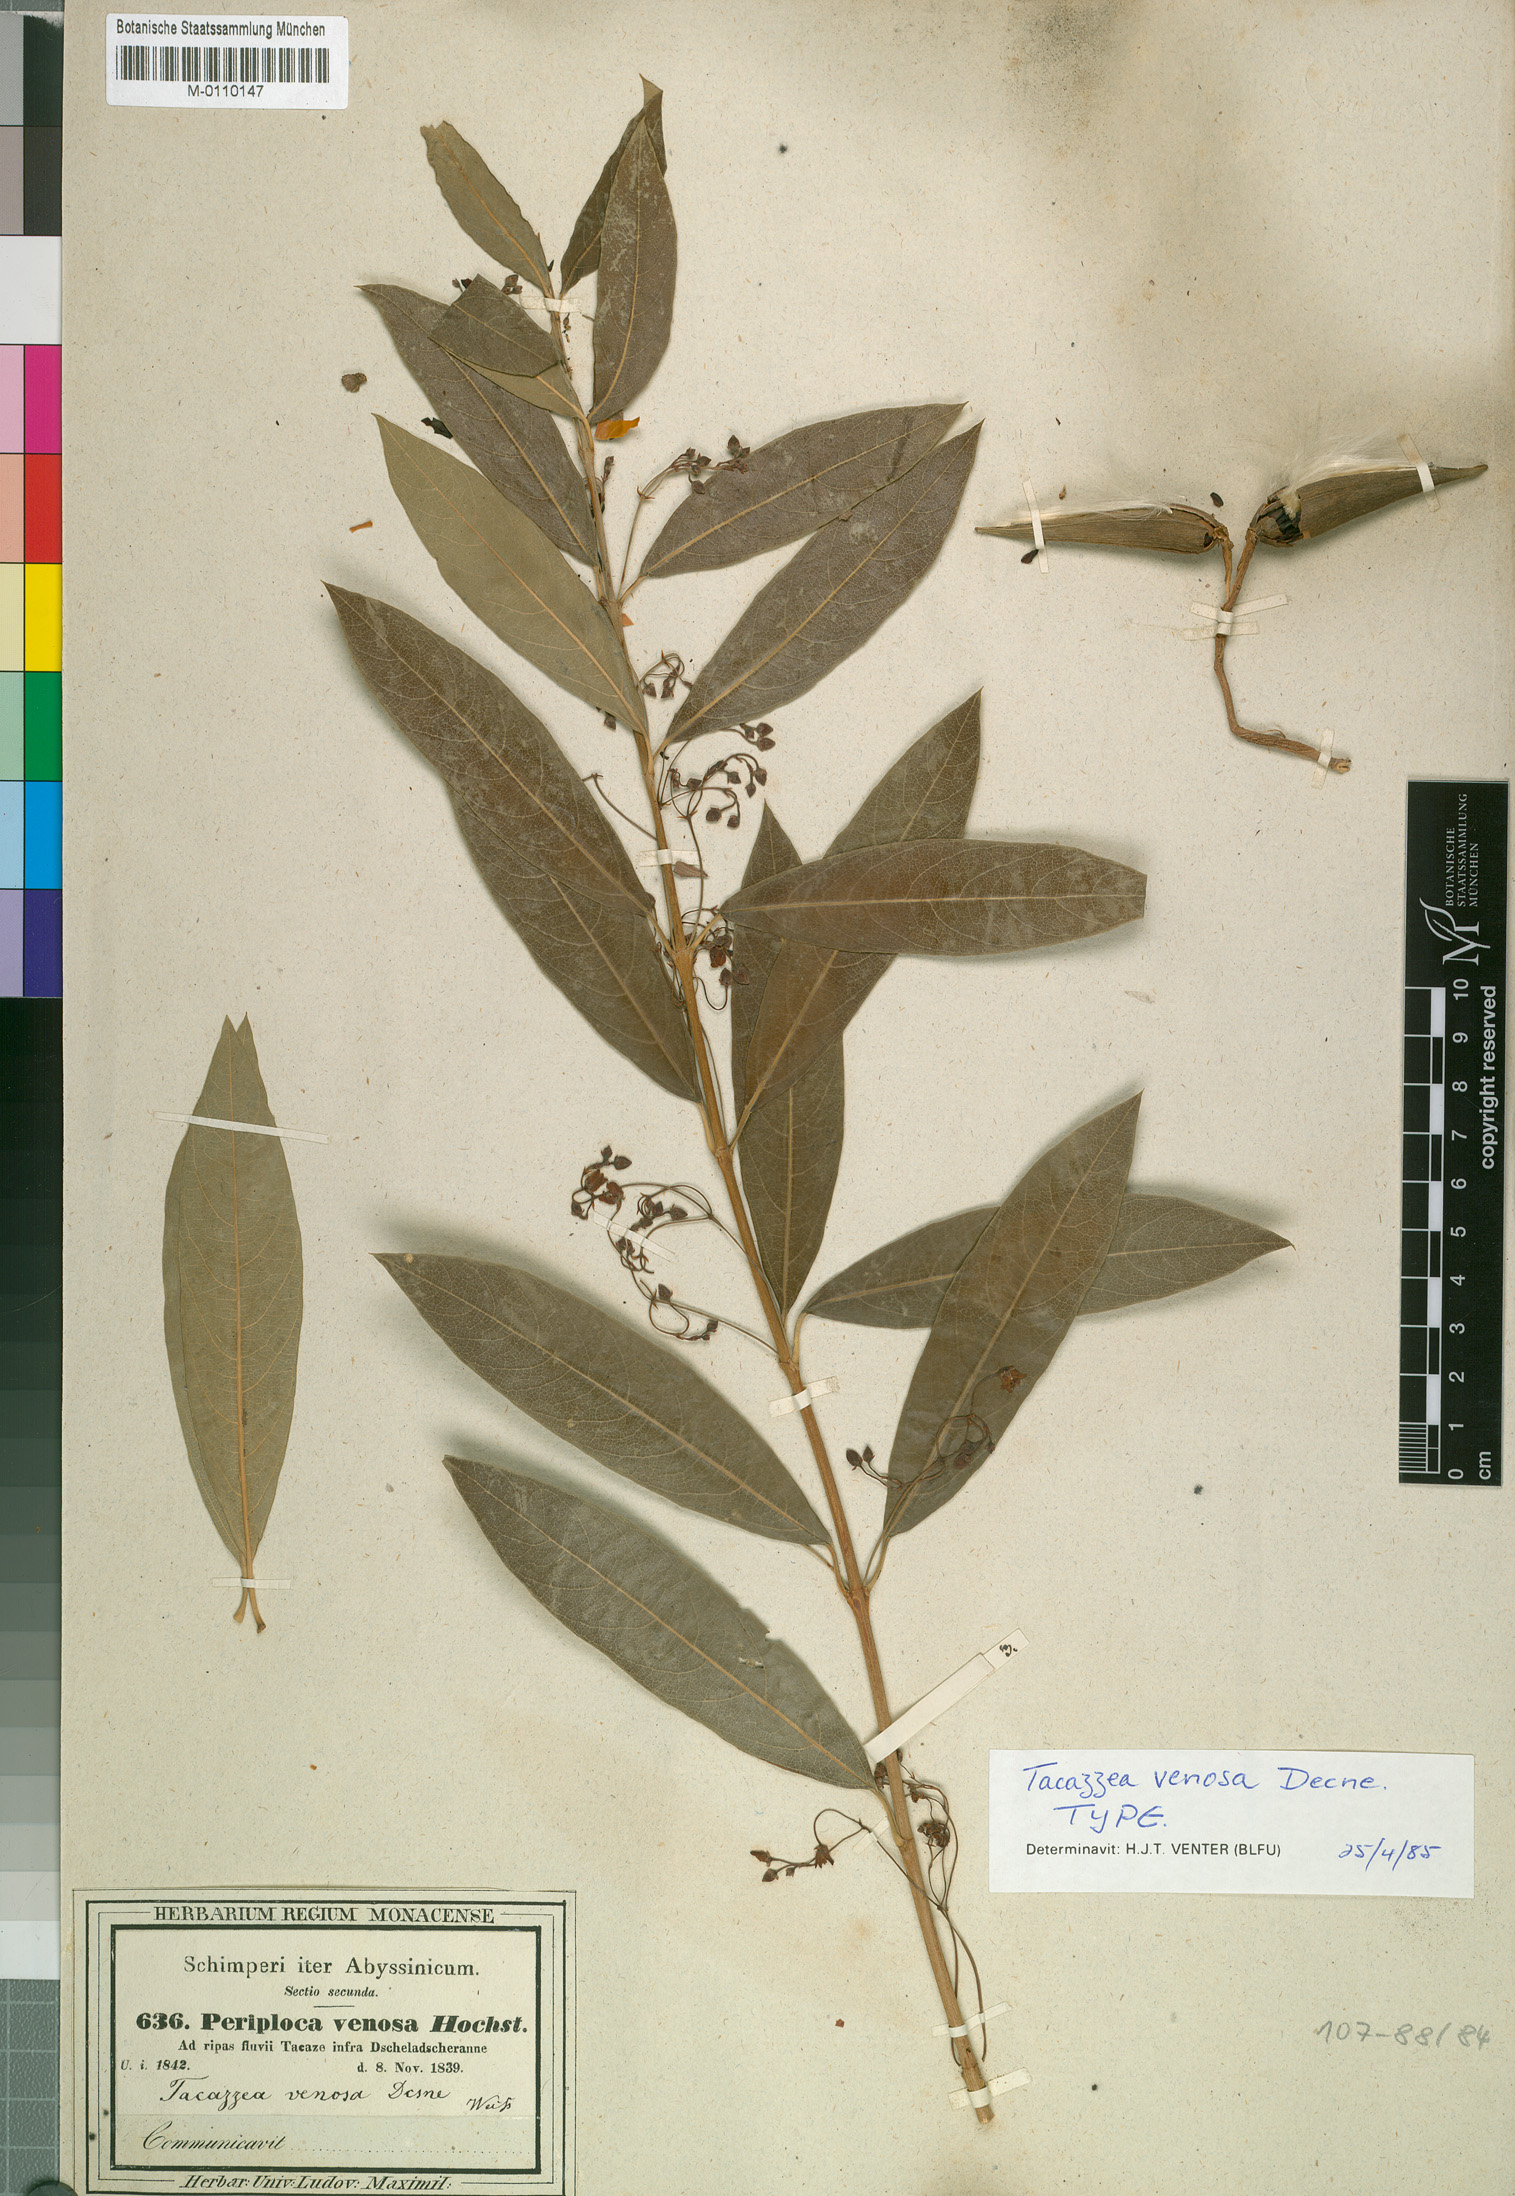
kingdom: Plantae
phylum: Tracheophyta
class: Magnoliopsida
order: Gentianales
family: Apocynaceae
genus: Tacazzea
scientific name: Tacazzea venosa
